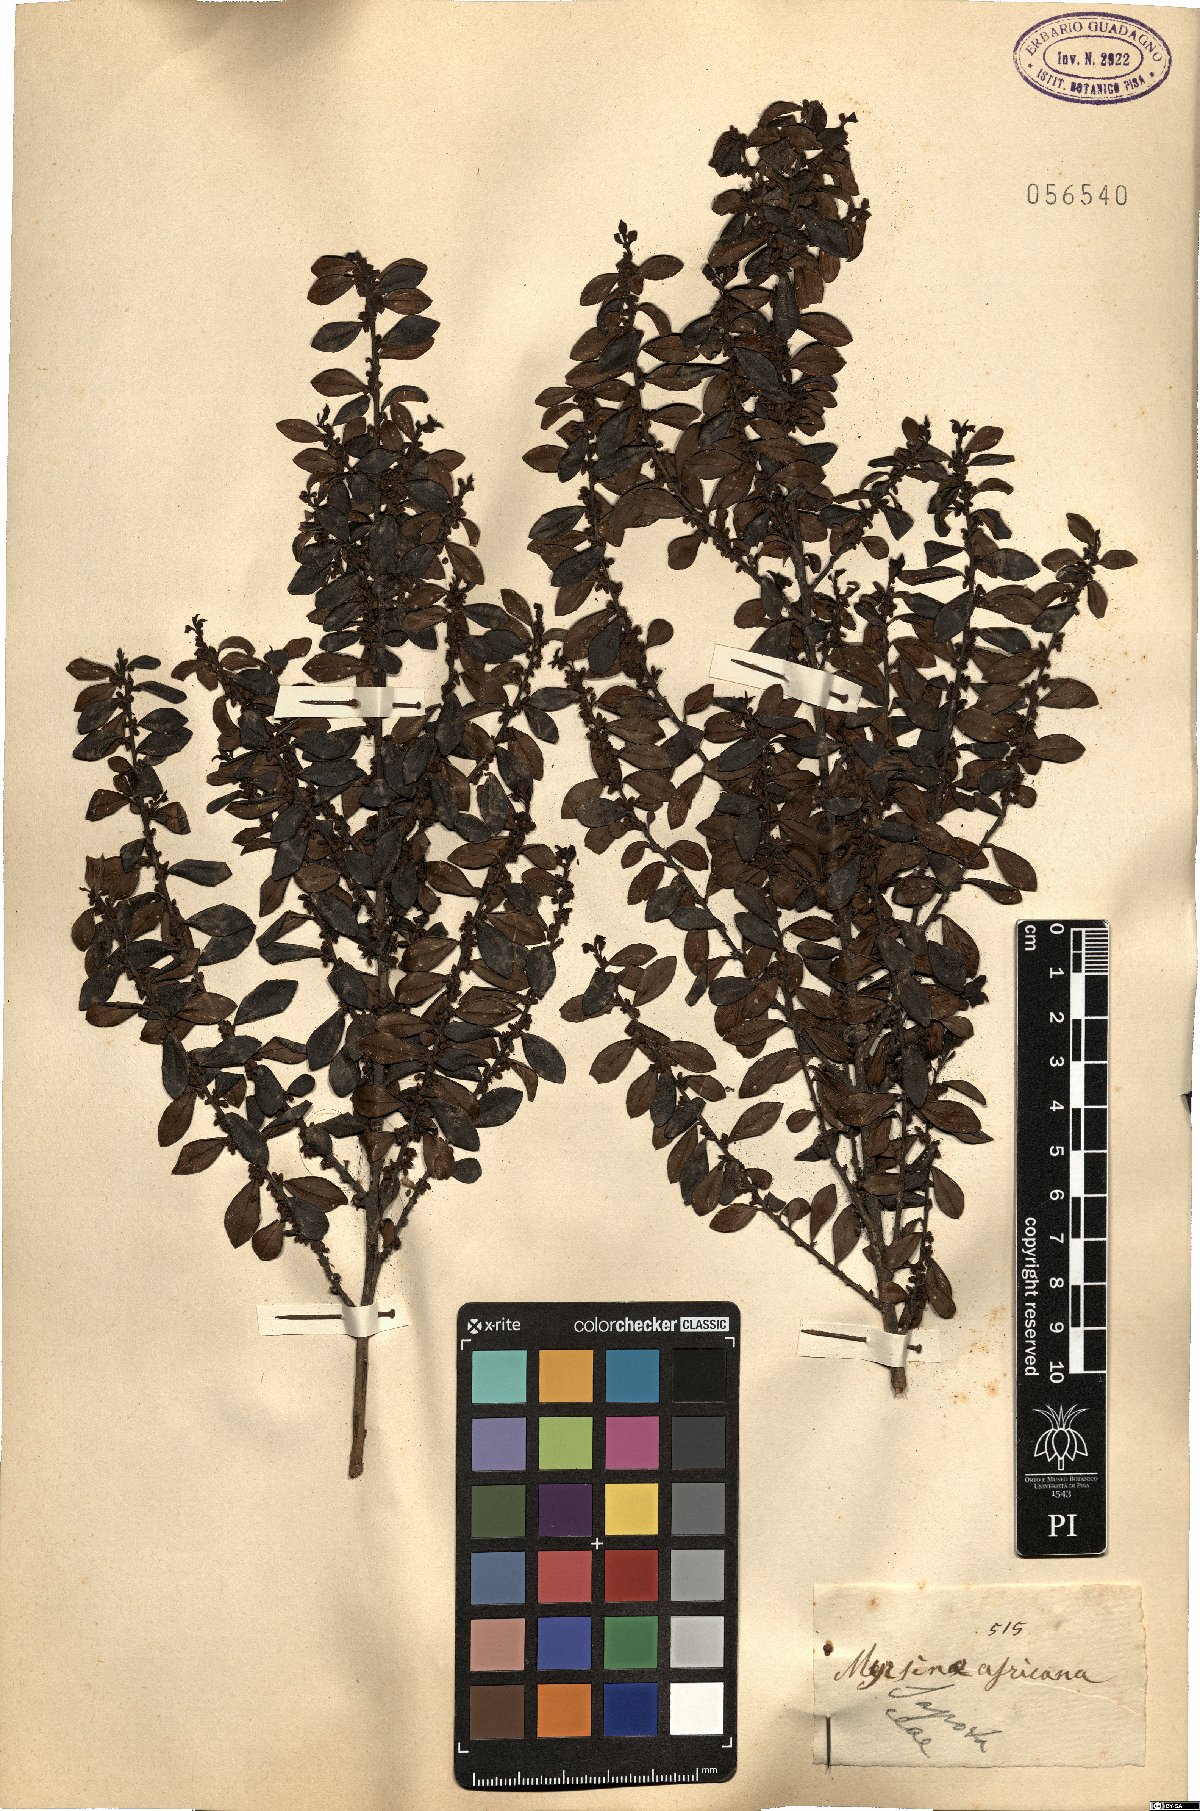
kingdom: Plantae
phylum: Tracheophyta
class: Magnoliopsida
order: Ericales
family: Primulaceae
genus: Myrsine
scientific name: Myrsine africana
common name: African-boxwood
